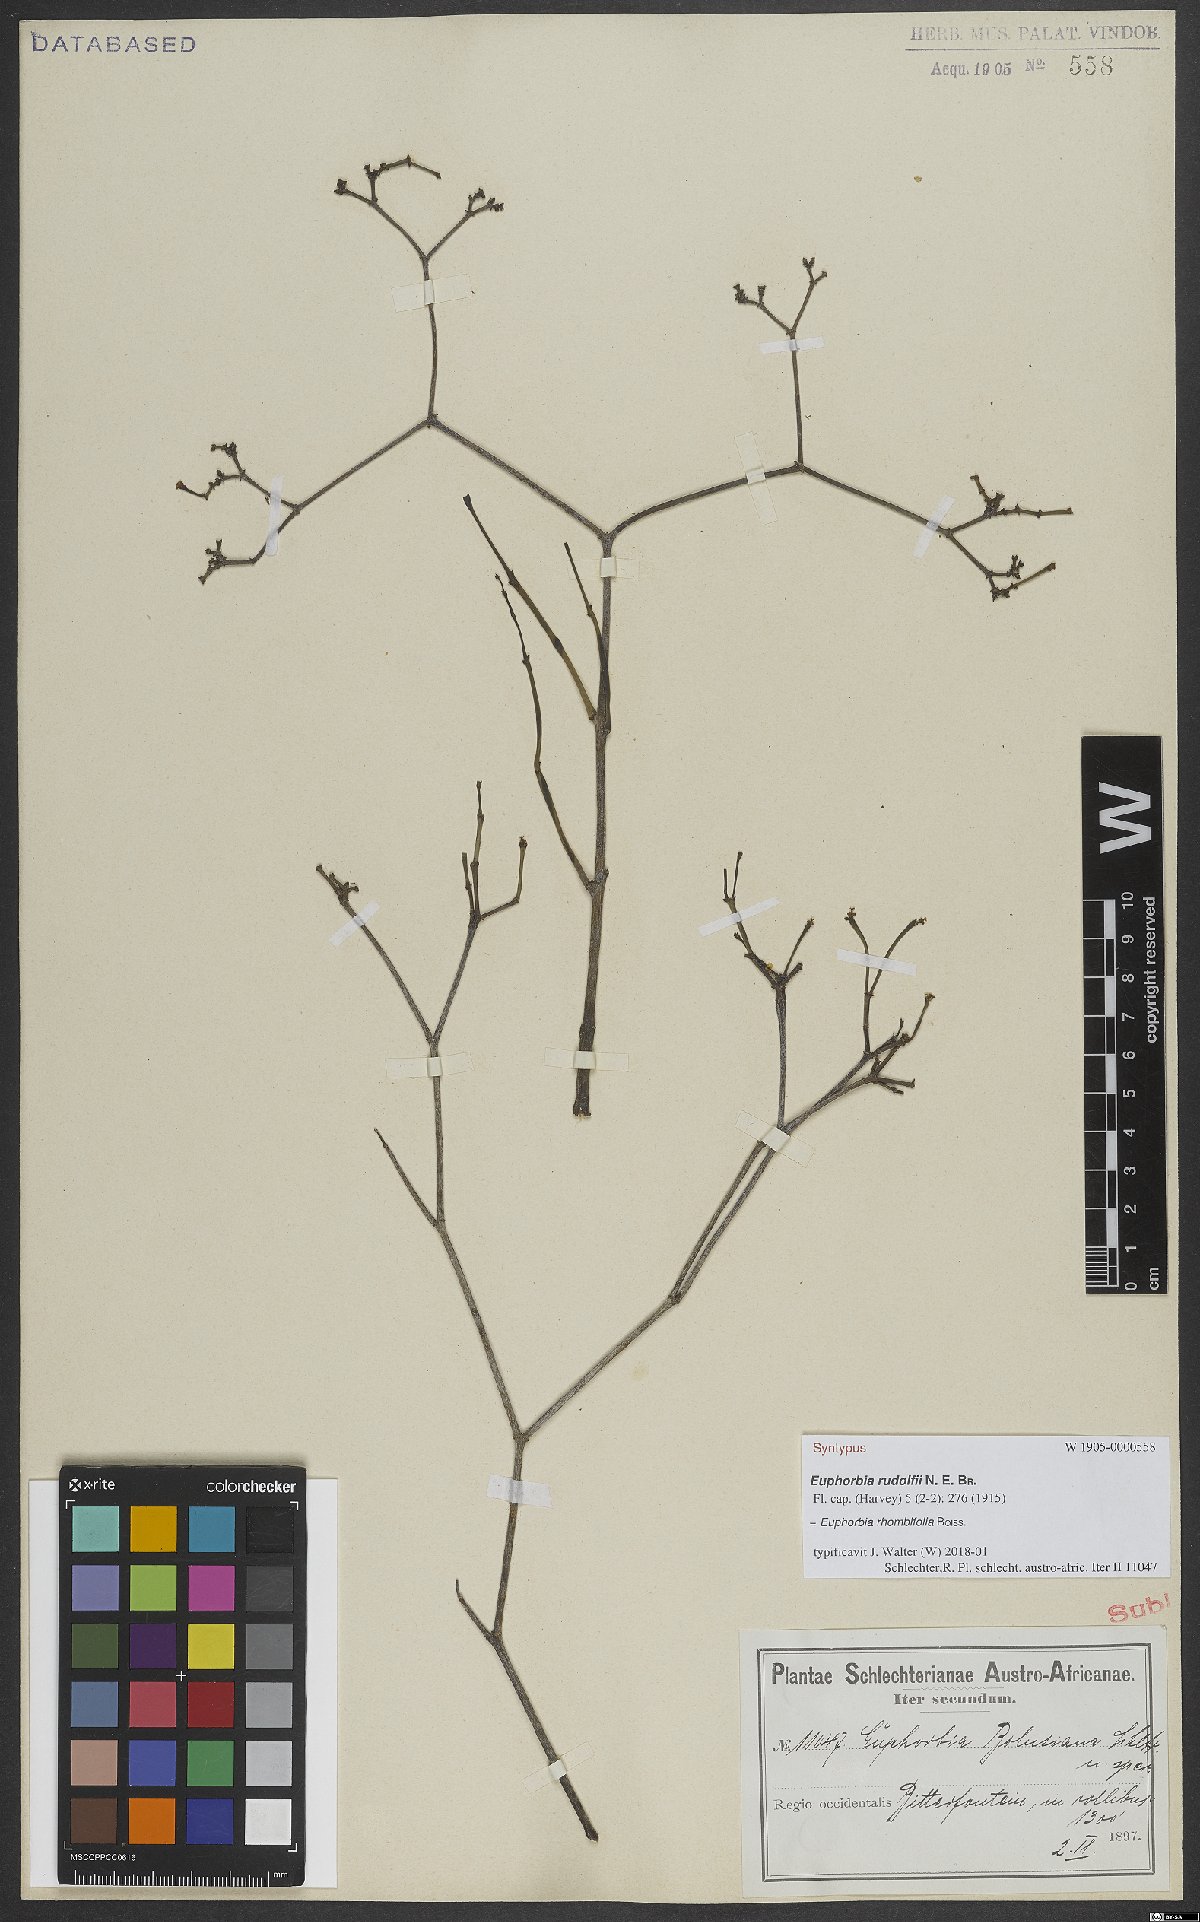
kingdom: Plantae
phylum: Tracheophyta
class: Magnoliopsida
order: Malpighiales
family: Euphorbiaceae
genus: Euphorbia
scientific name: Euphorbia rhombifolia
